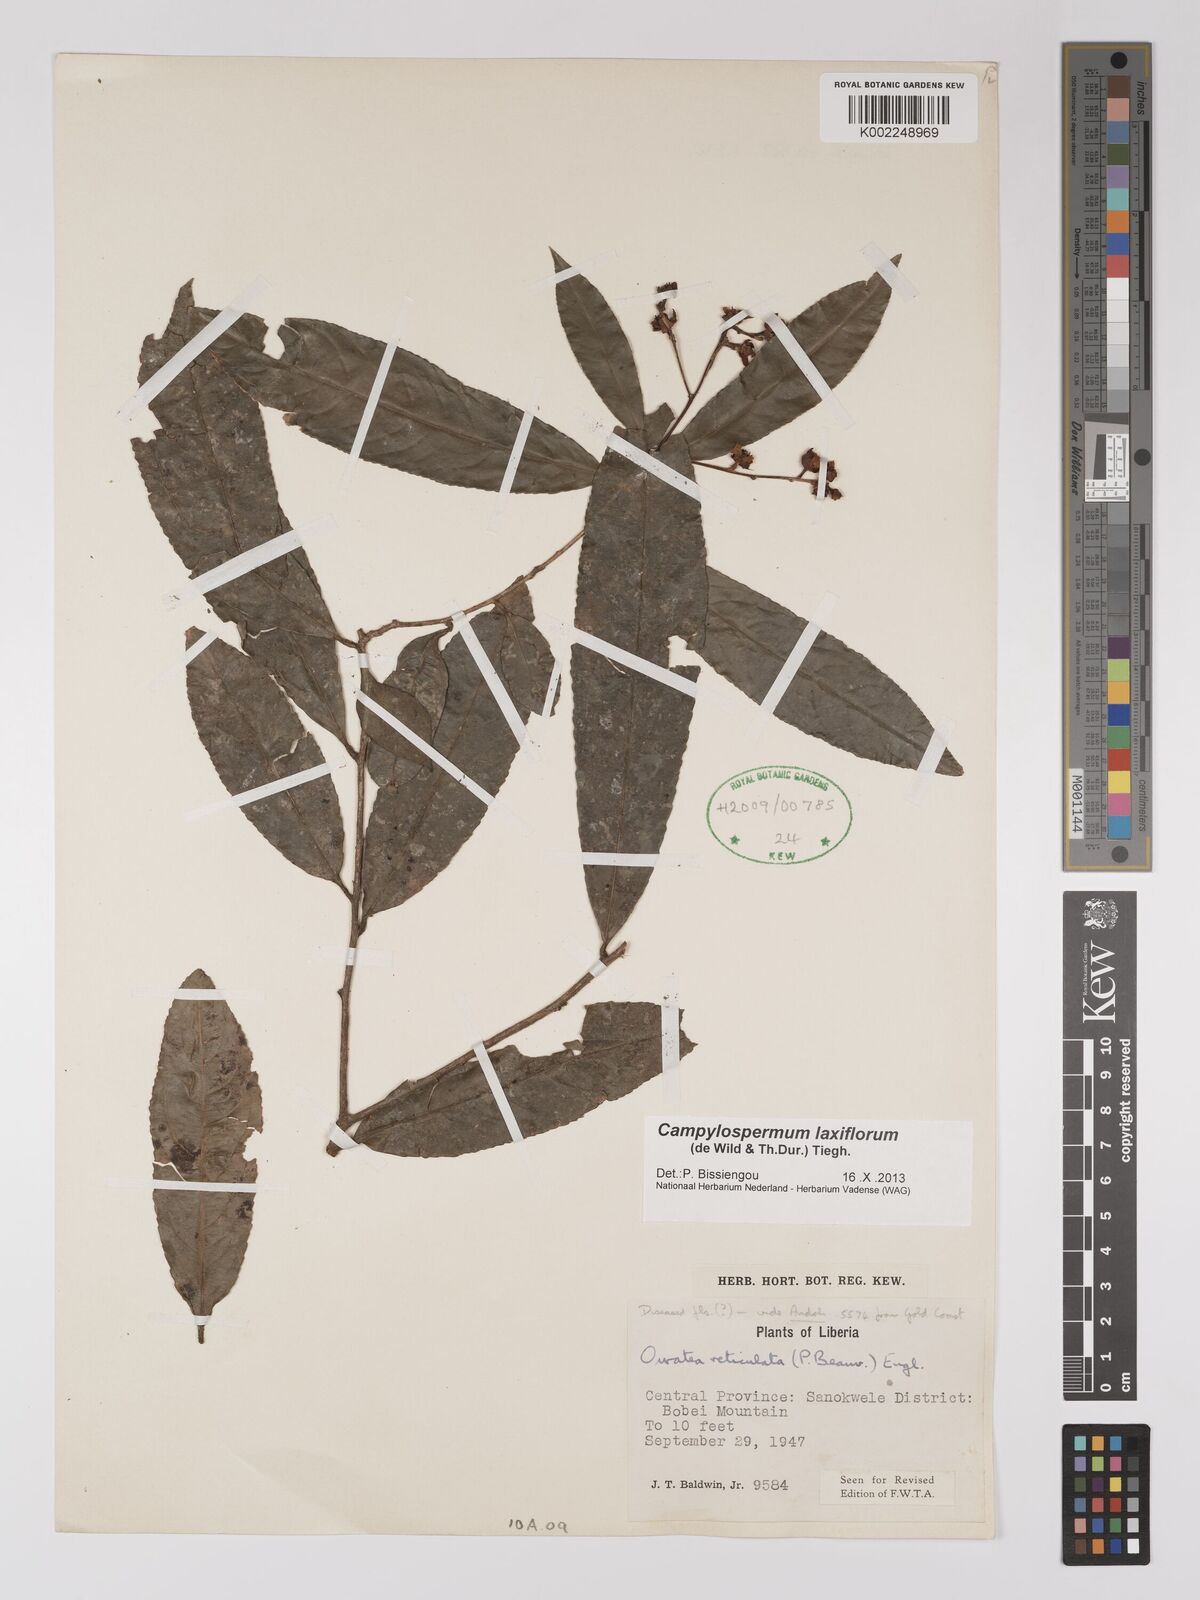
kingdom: Plantae
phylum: Tracheophyta
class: Magnoliopsida
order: Malpighiales
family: Ochnaceae
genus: Campylospermum
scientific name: Campylospermum laxiflorum
